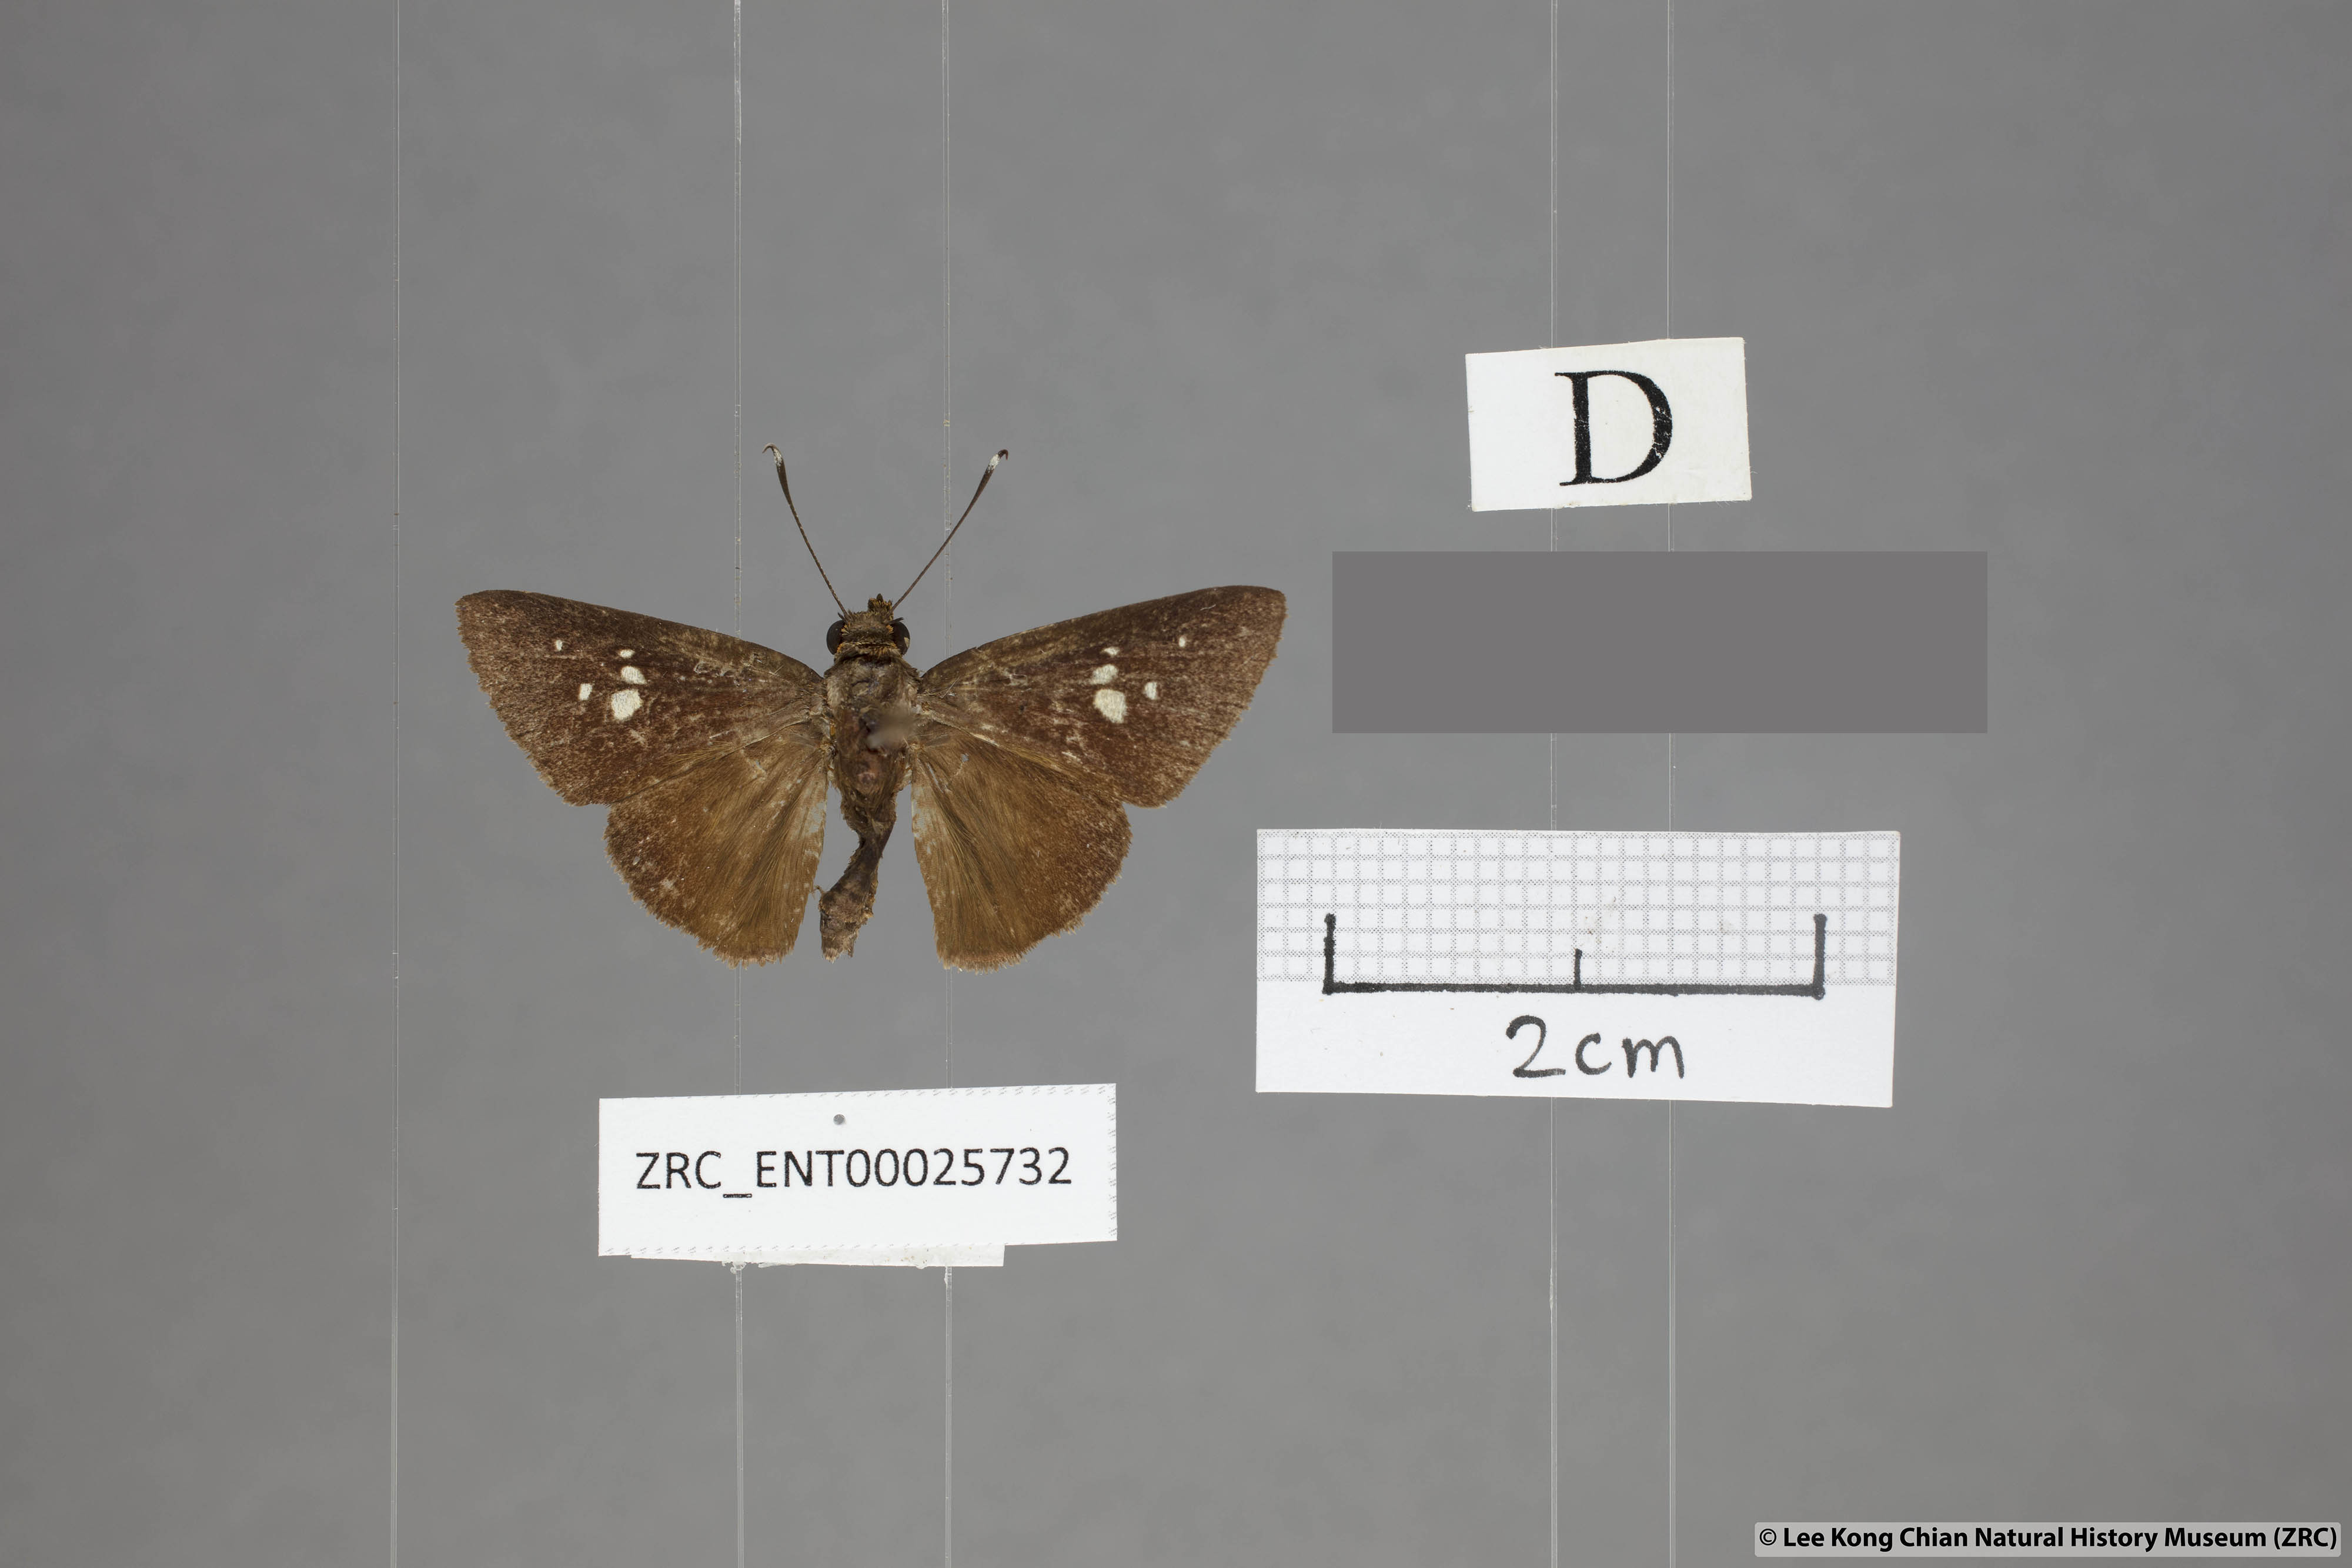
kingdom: Animalia
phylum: Arthropoda
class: Insecta
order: Lepidoptera
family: Hesperiidae
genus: Zographetus
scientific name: Zographetus kutu
